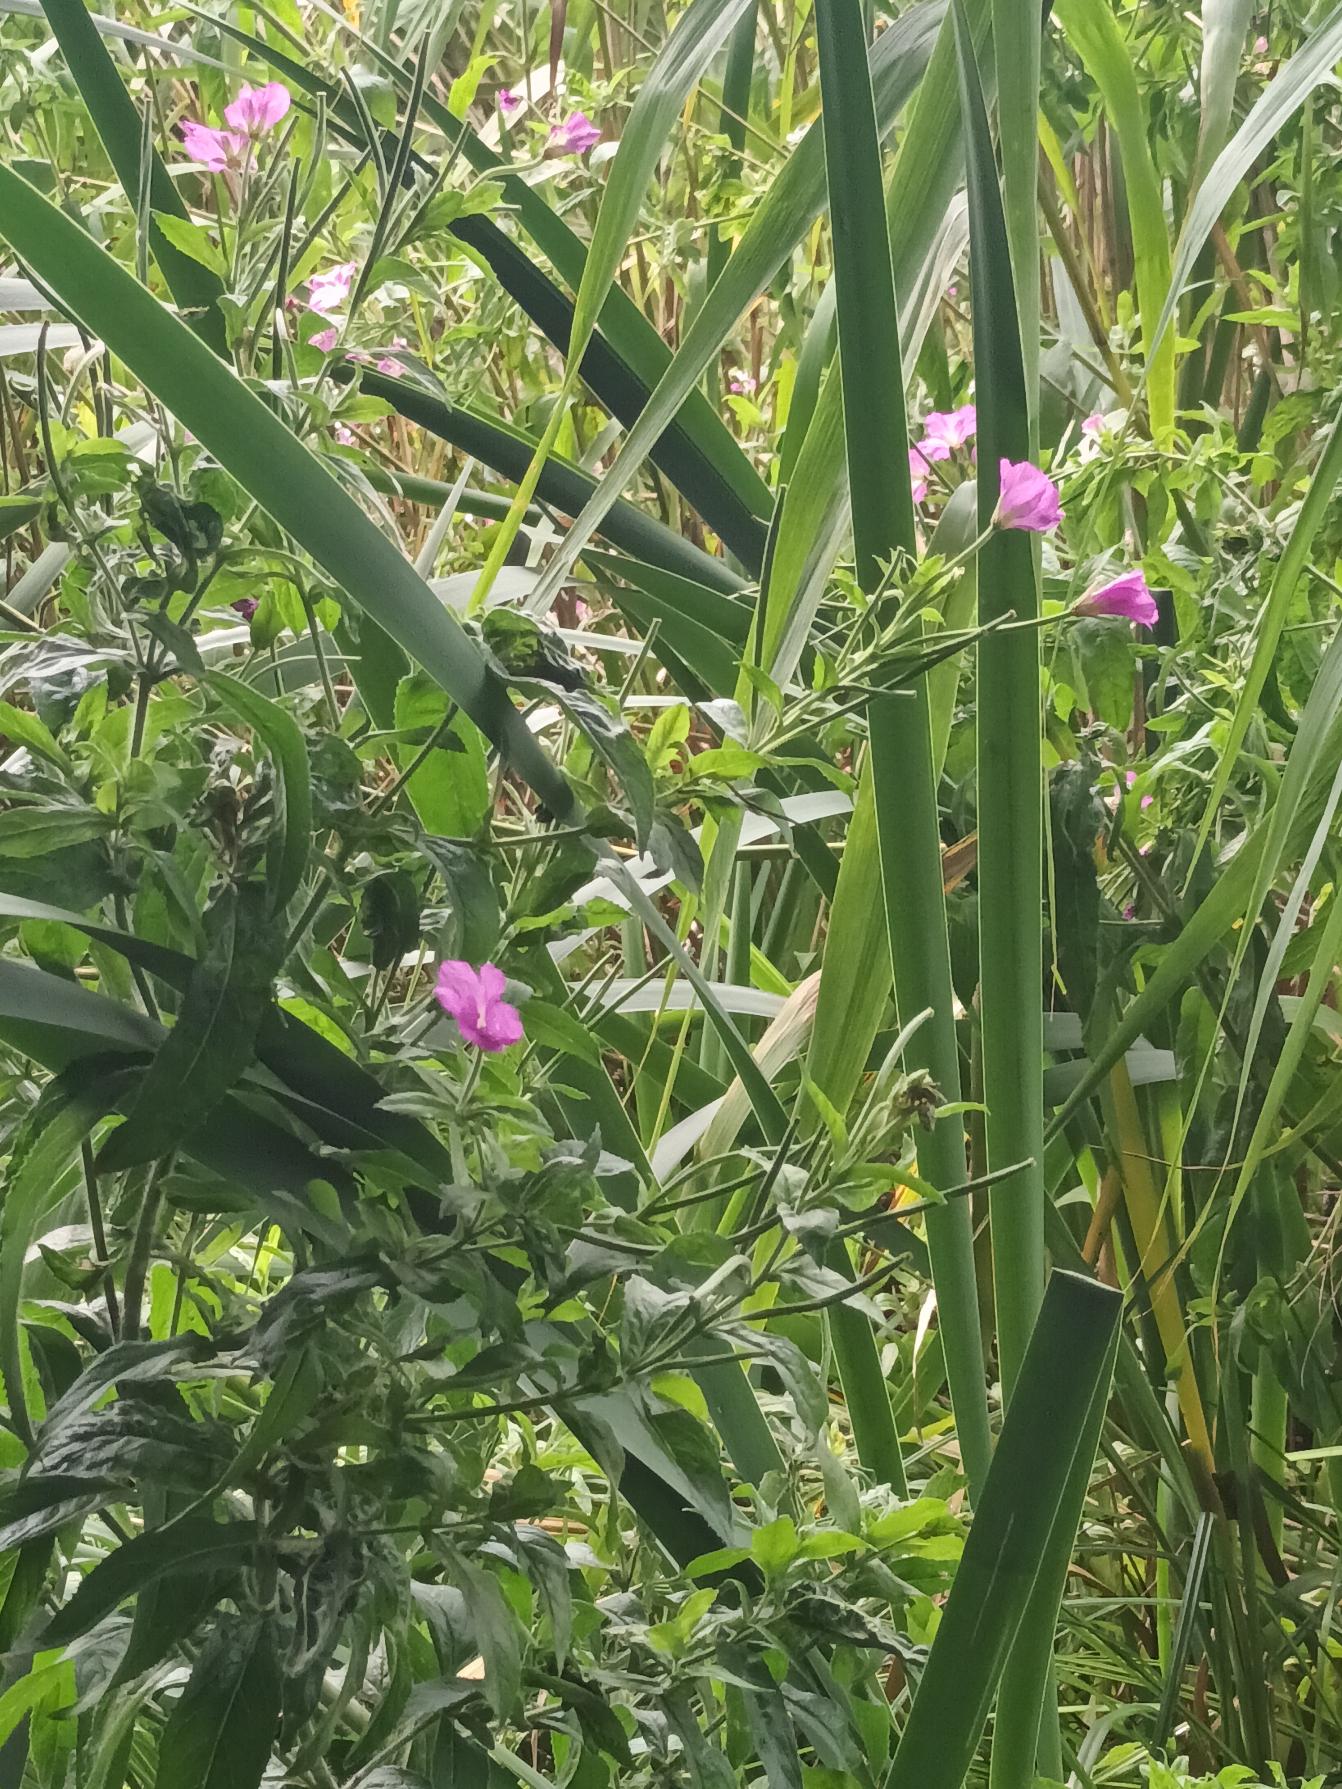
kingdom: Plantae
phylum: Tracheophyta
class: Magnoliopsida
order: Myrtales
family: Onagraceae
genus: Epilobium
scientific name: Epilobium hirsutum
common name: Lådden dueurt
